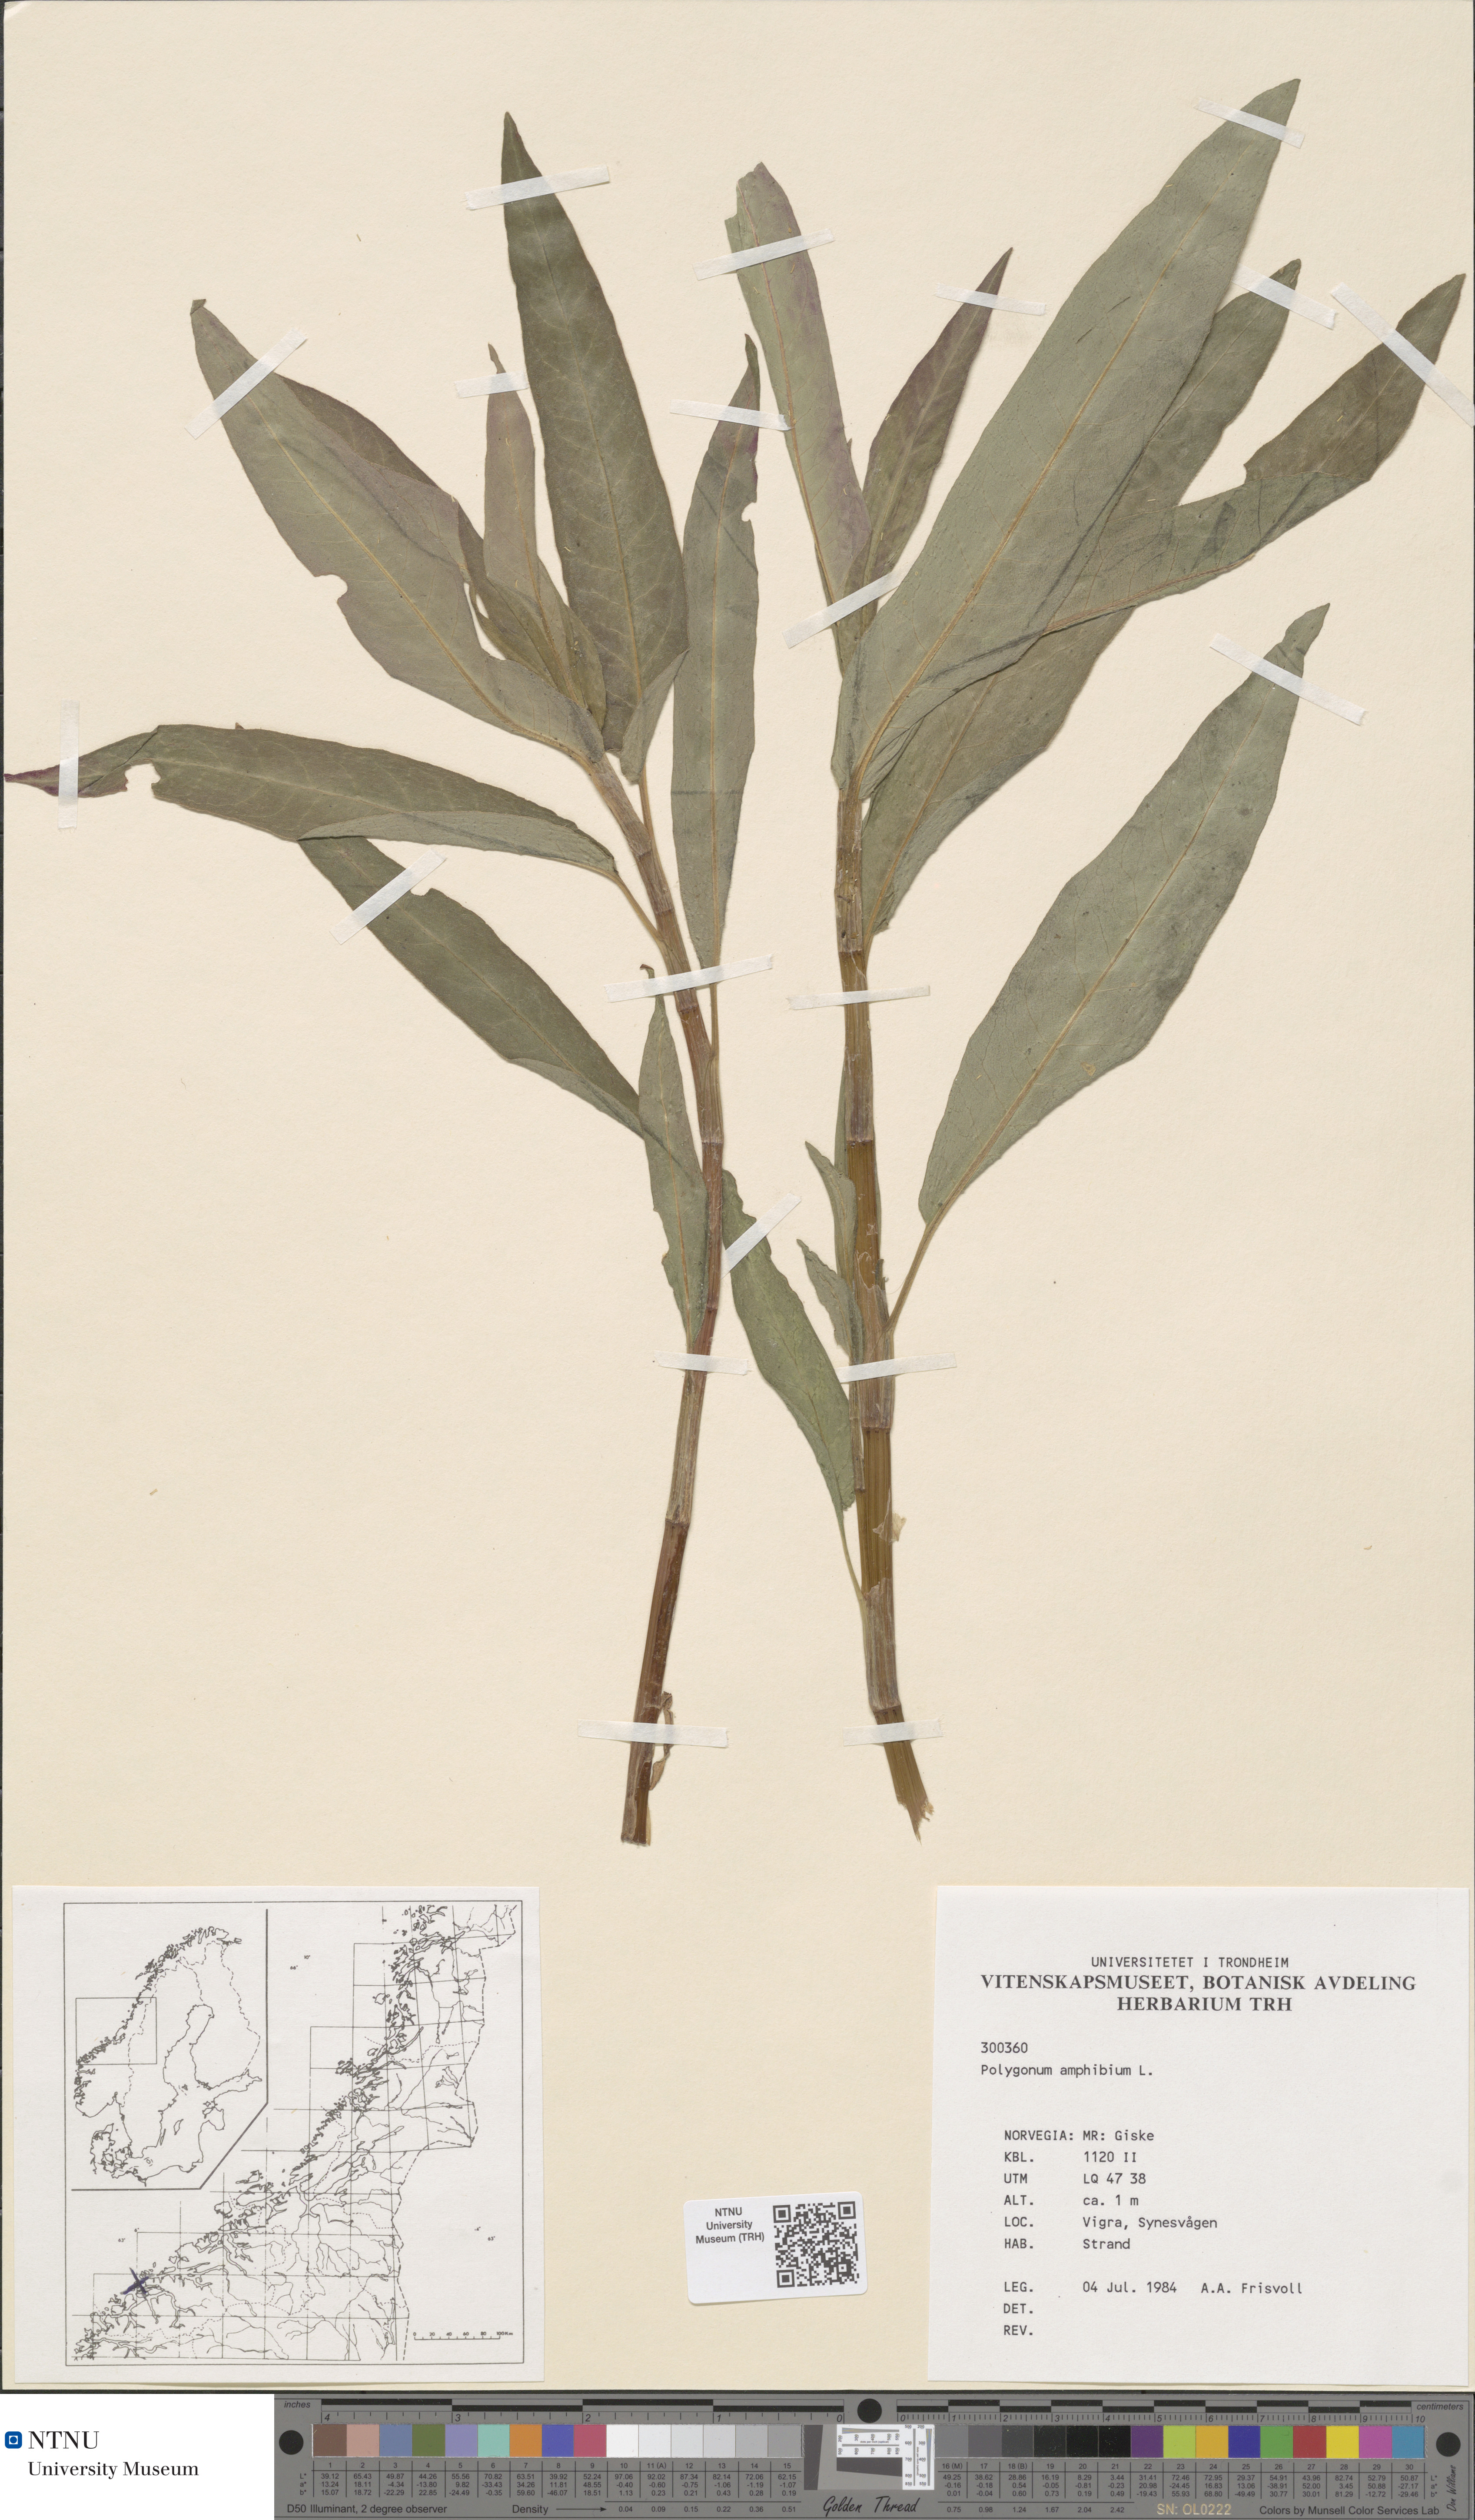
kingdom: Plantae
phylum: Tracheophyta
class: Magnoliopsida
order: Caryophyllales
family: Polygonaceae
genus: Persicaria
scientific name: Persicaria amphibia
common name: Amphibious bistort
